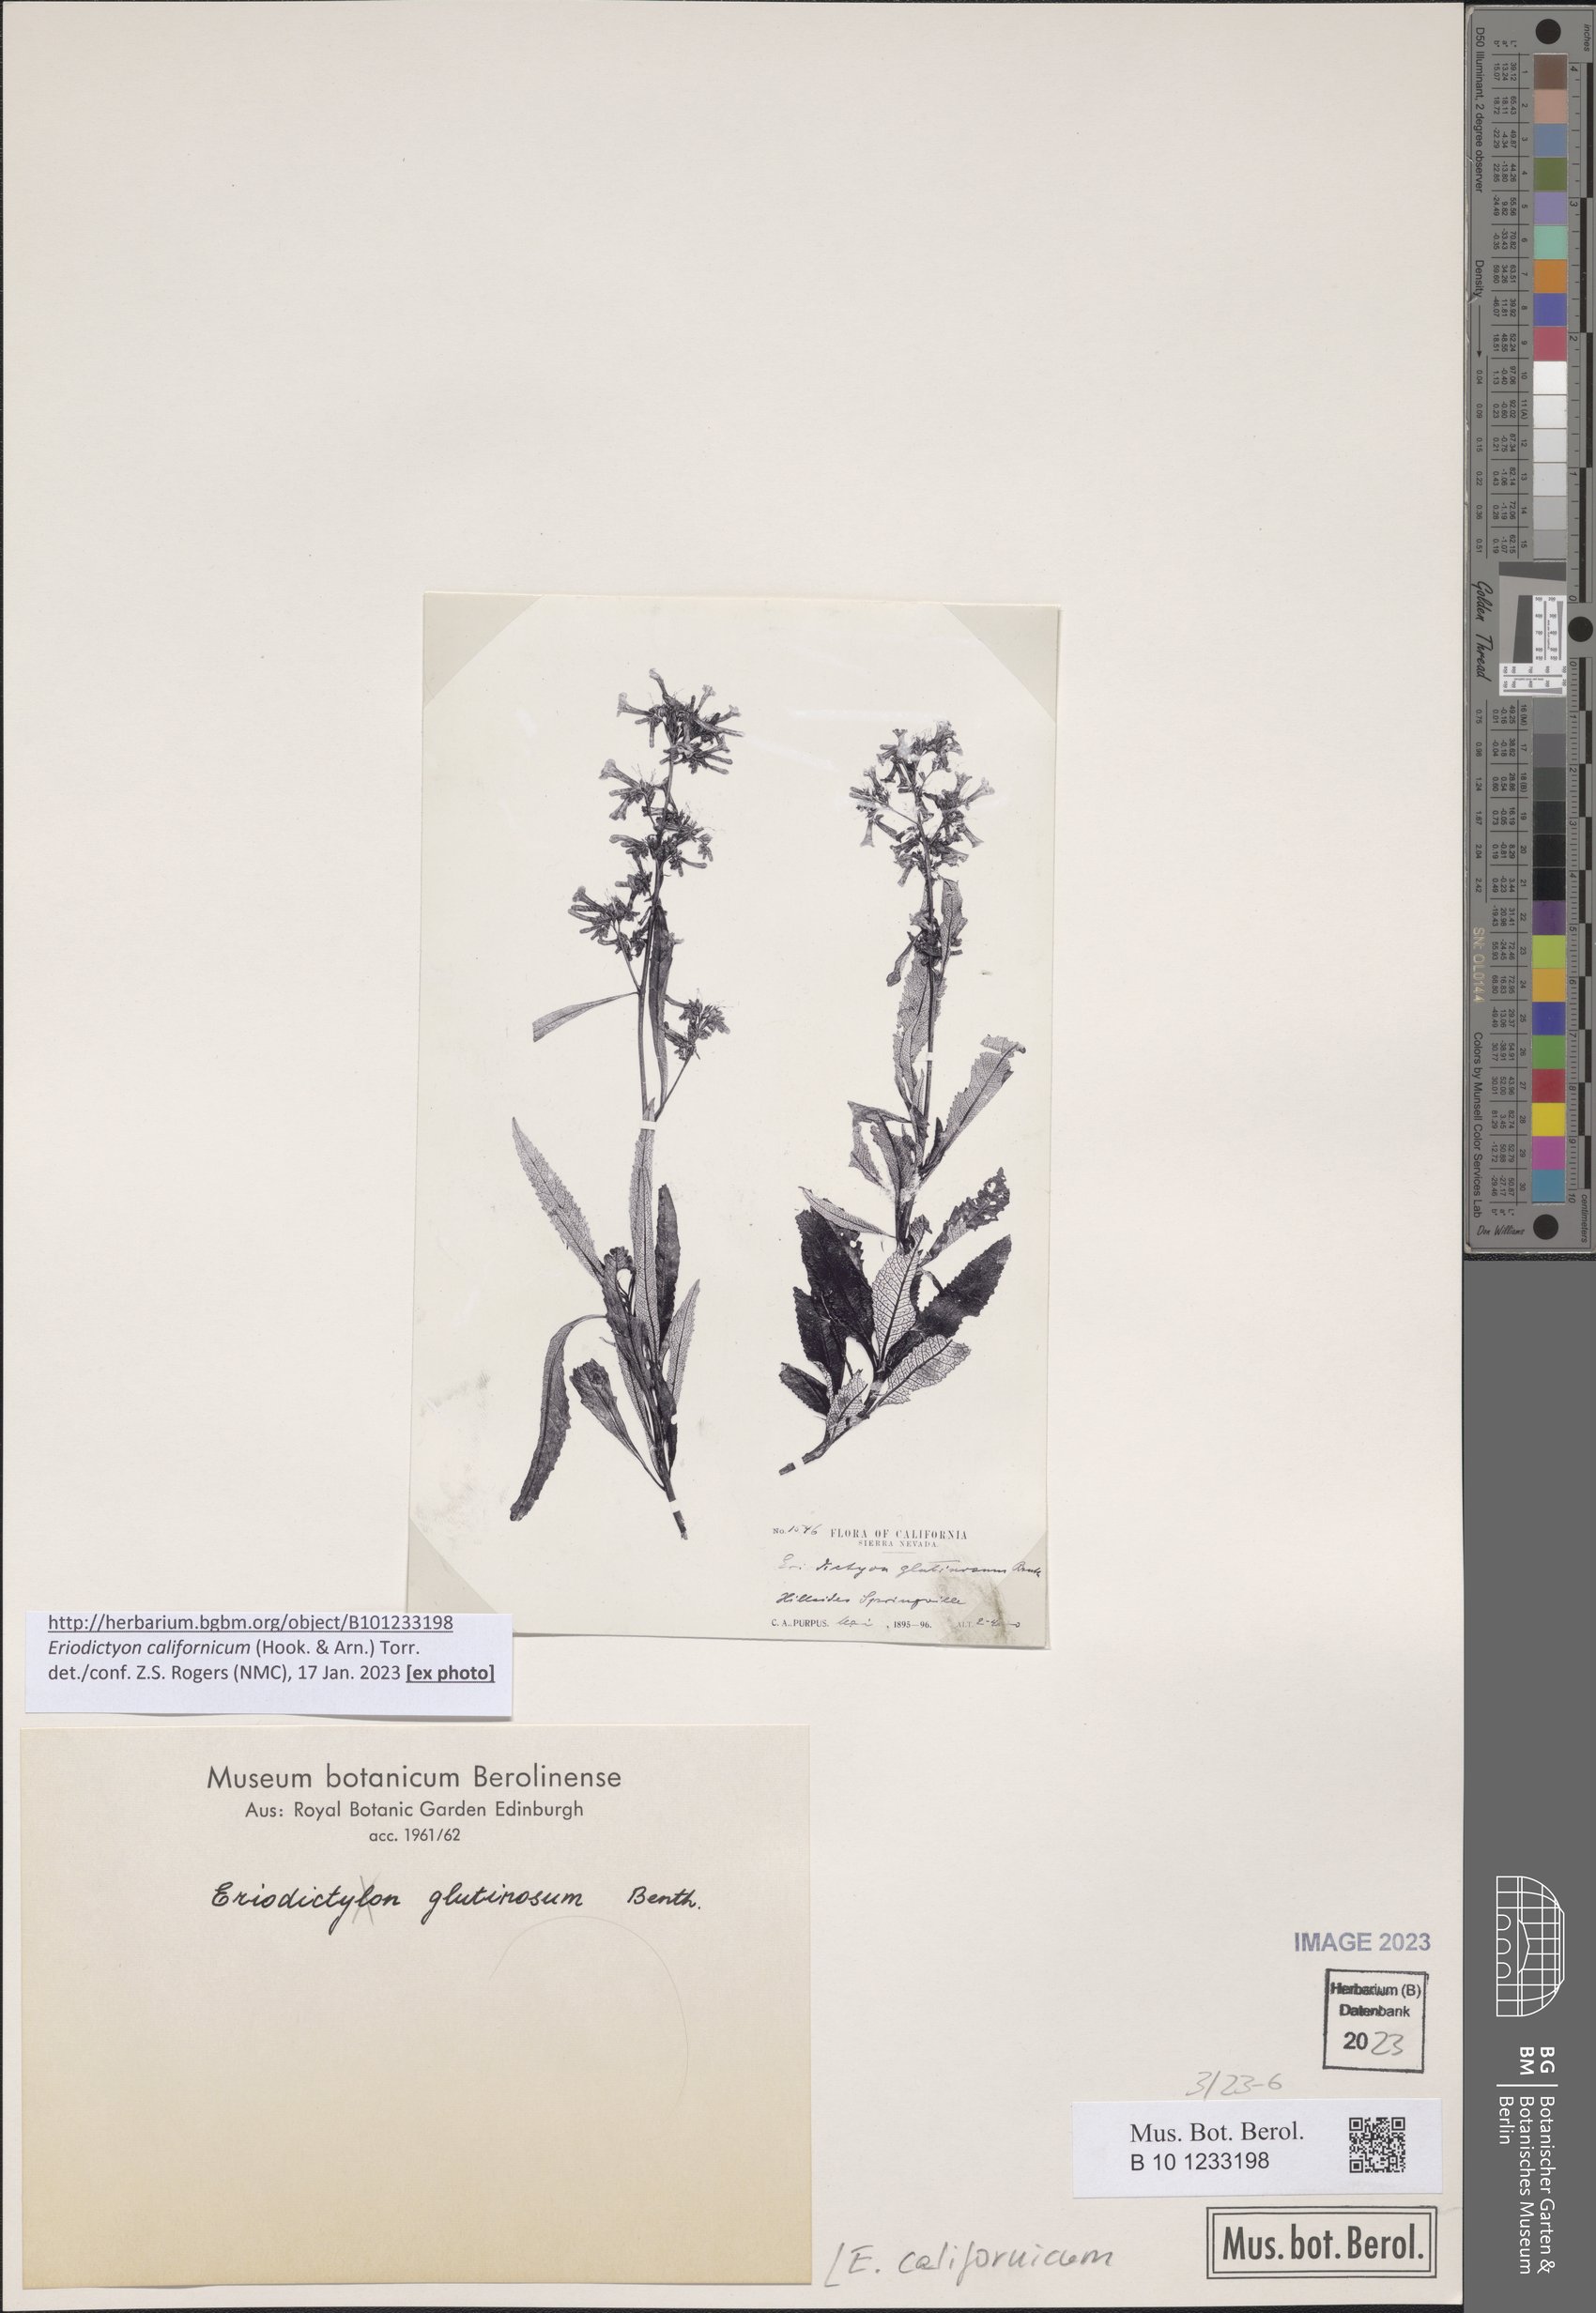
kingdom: Plantae
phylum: Tracheophyta
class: Magnoliopsida
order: Boraginales
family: Namaceae
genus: Eriodictyon
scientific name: Eriodictyon crassifolium
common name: Thick-leaf yerba-santa
